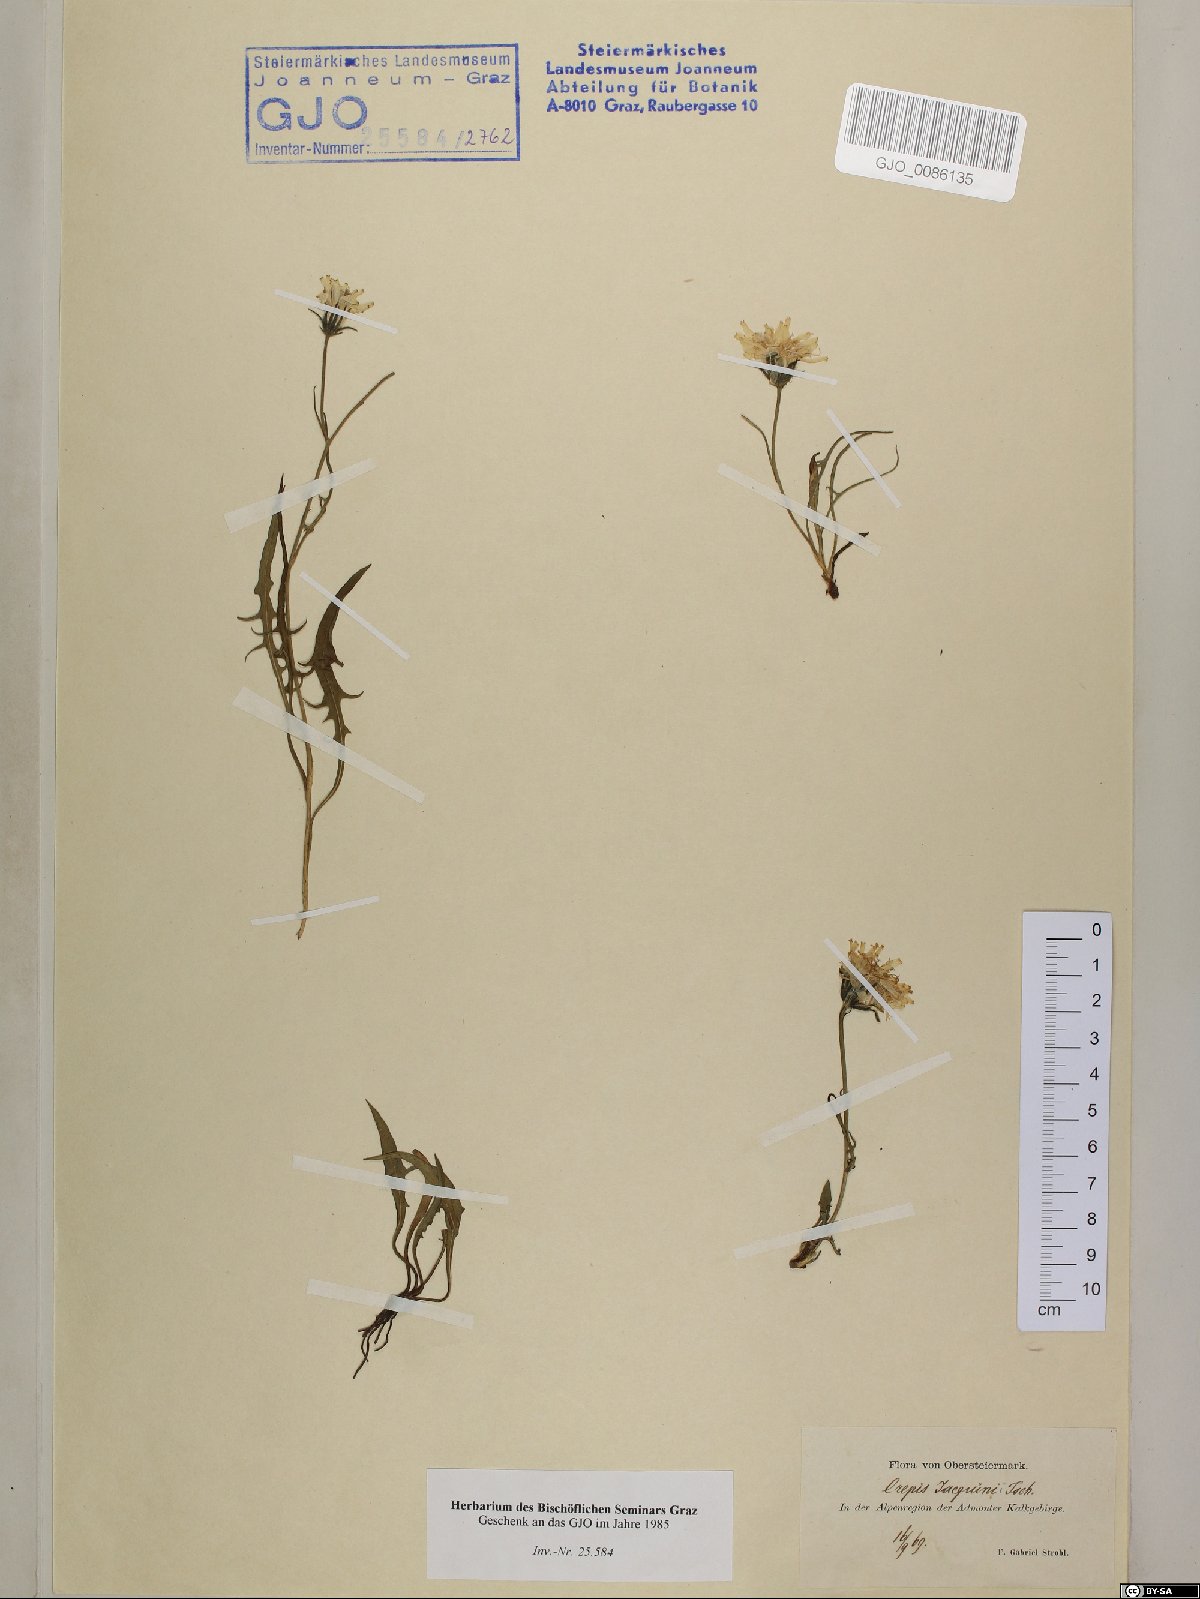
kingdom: Plantae
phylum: Tracheophyta
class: Magnoliopsida
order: Asterales
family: Asteraceae
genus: Crepis
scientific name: Crepis jacquinii
